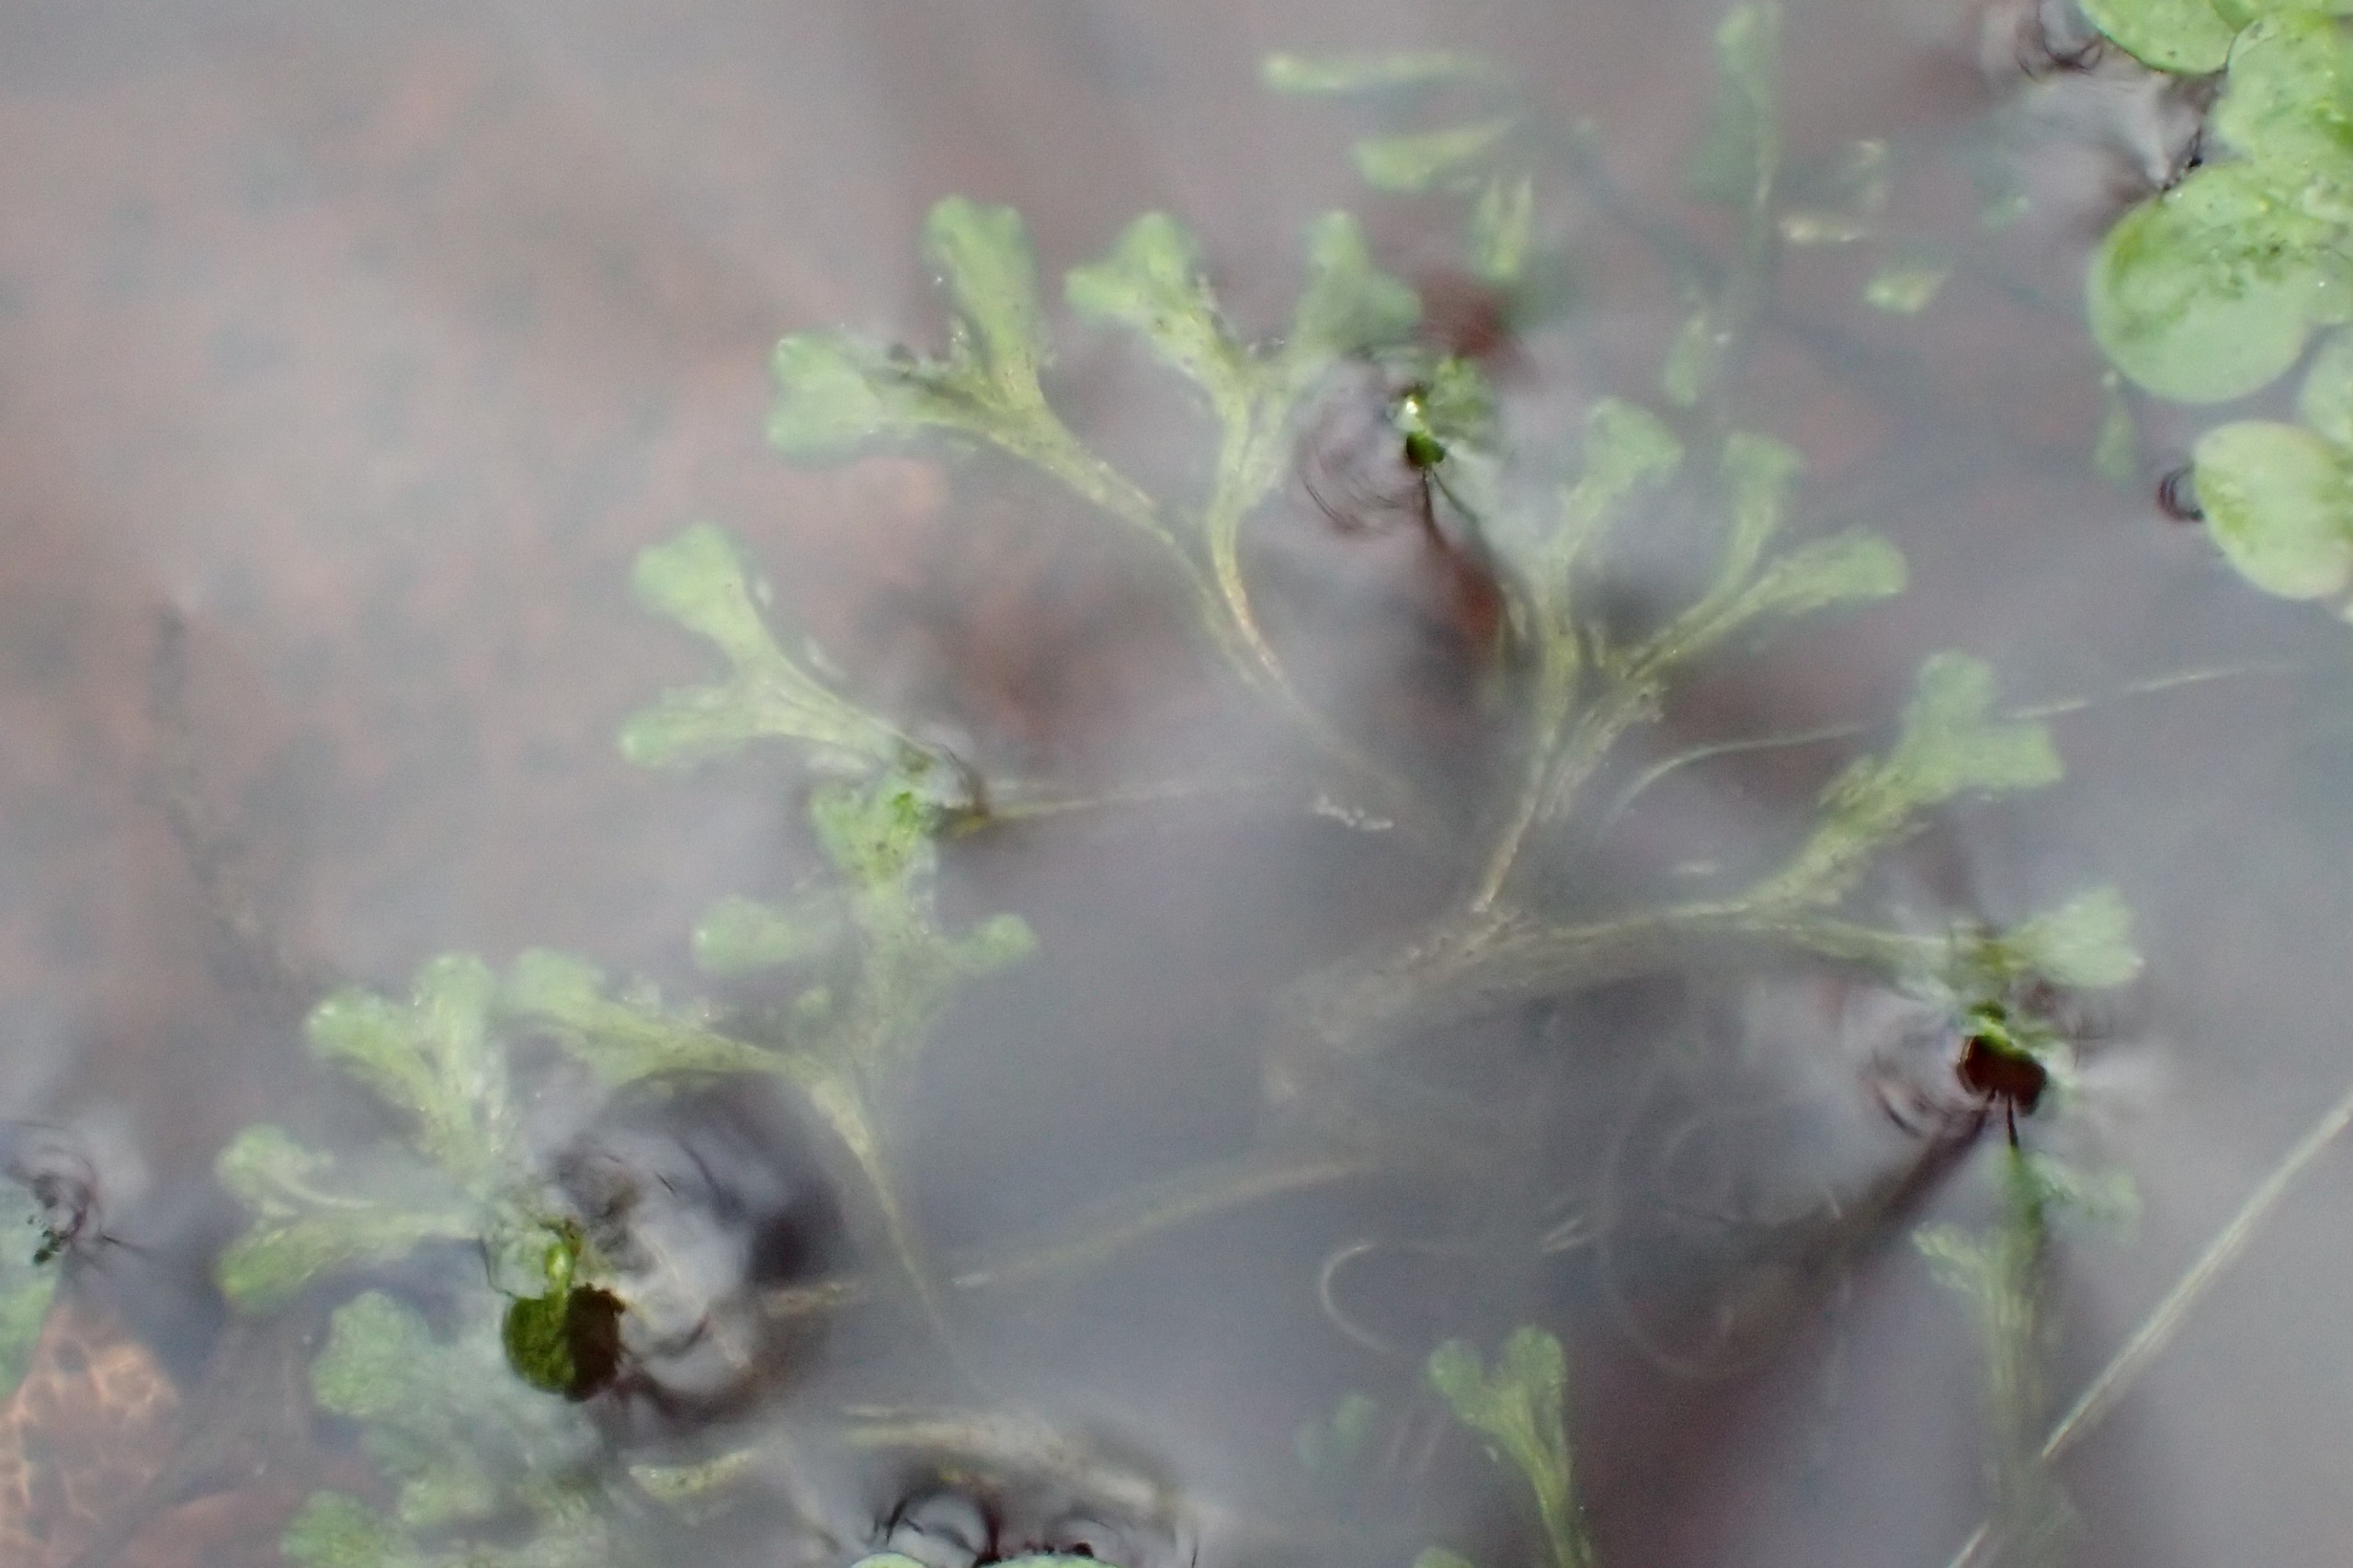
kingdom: Plantae
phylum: Marchantiophyta
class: Marchantiopsida
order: Marchantiales
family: Ricciaceae
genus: Riccia
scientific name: Riccia fluitans
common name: Svømmende stjerneløv
